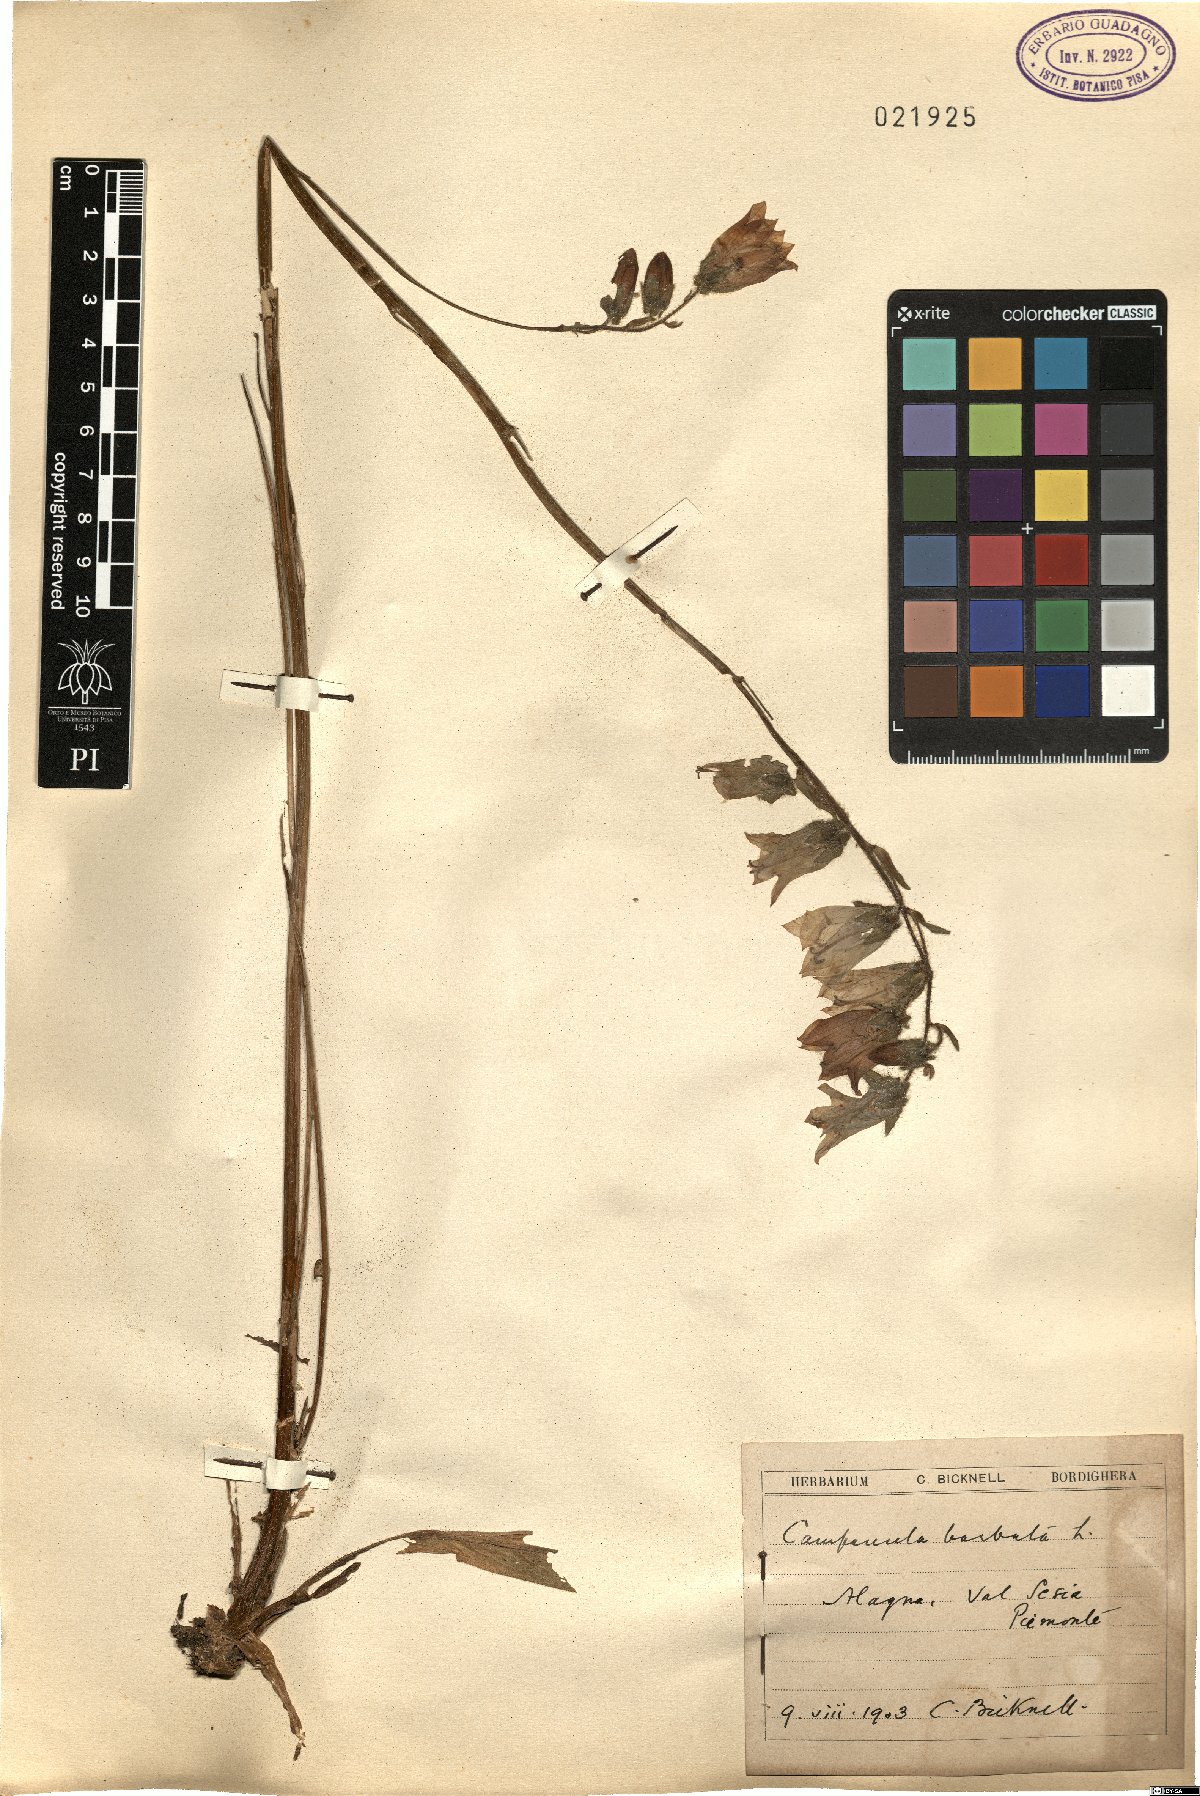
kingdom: Plantae
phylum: Tracheophyta
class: Magnoliopsida
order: Asterales
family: Campanulaceae
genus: Campanula
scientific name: Campanula barbata
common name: Bearded bellflower
